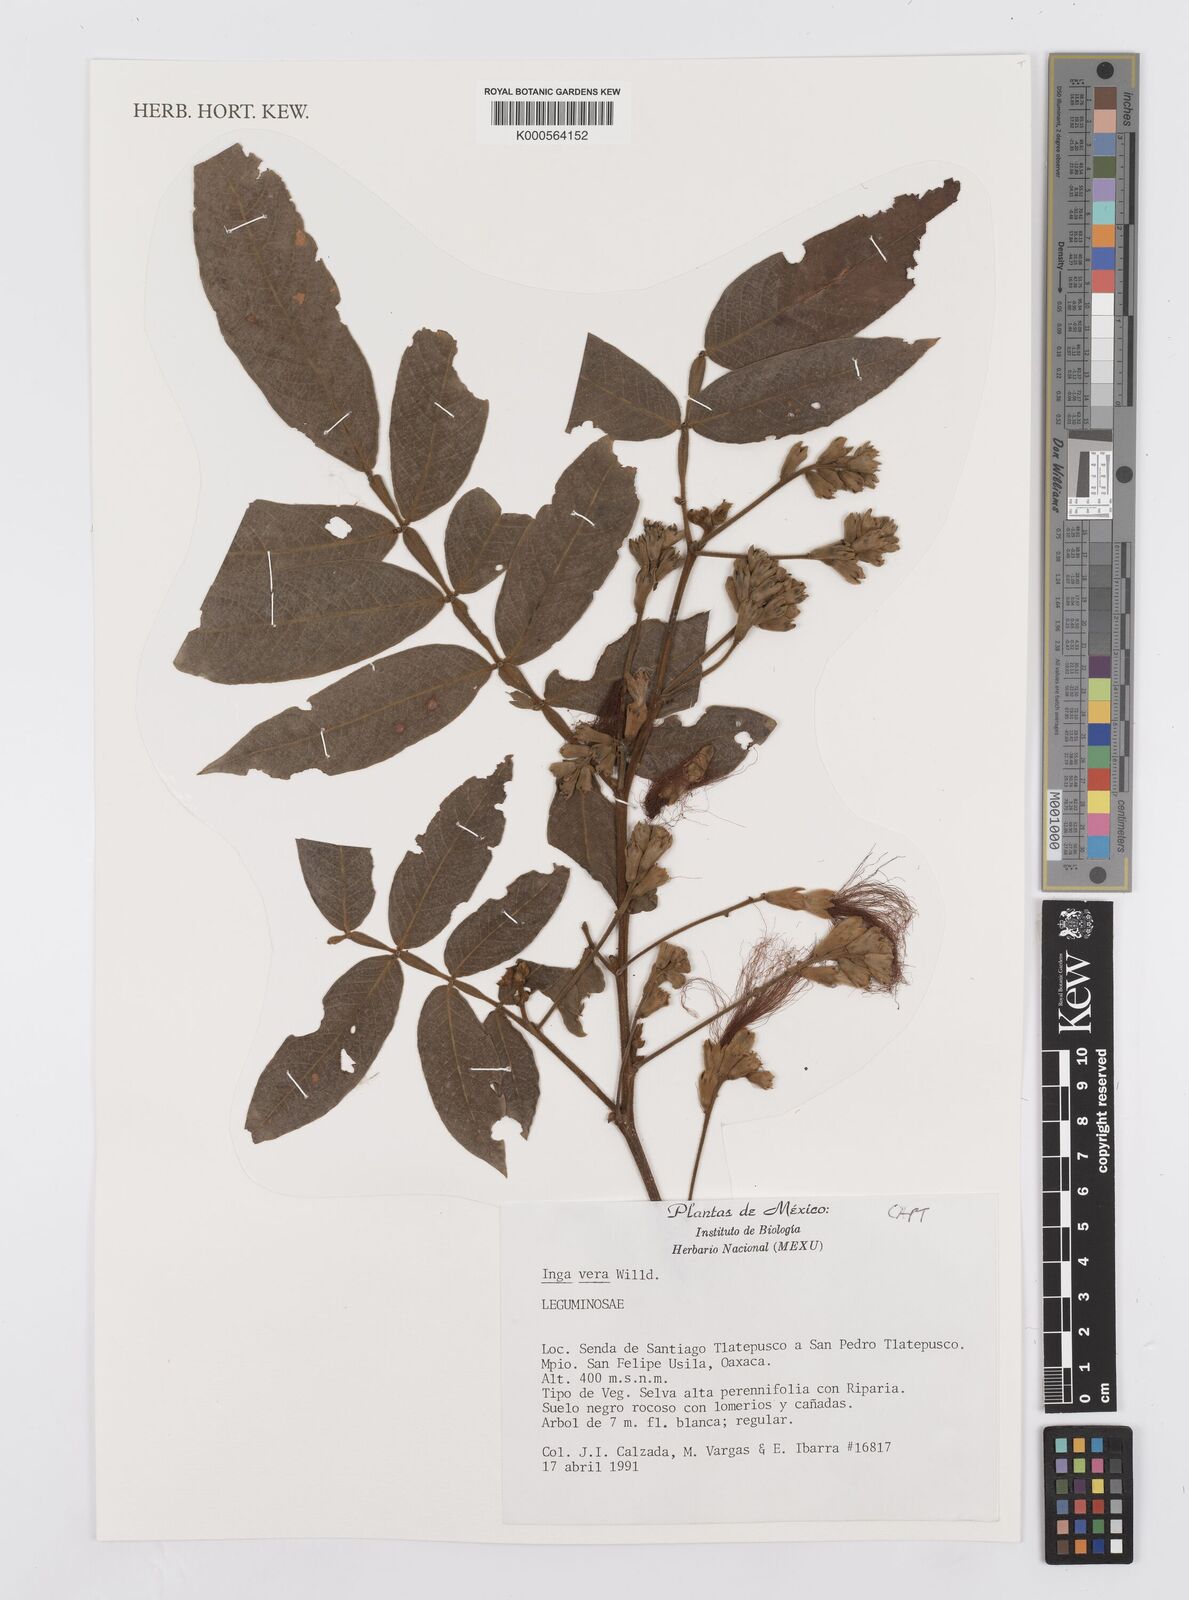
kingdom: Plantae
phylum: Tracheophyta
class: Magnoliopsida
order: Fabales
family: Fabaceae
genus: Inga
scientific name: Inga vera
